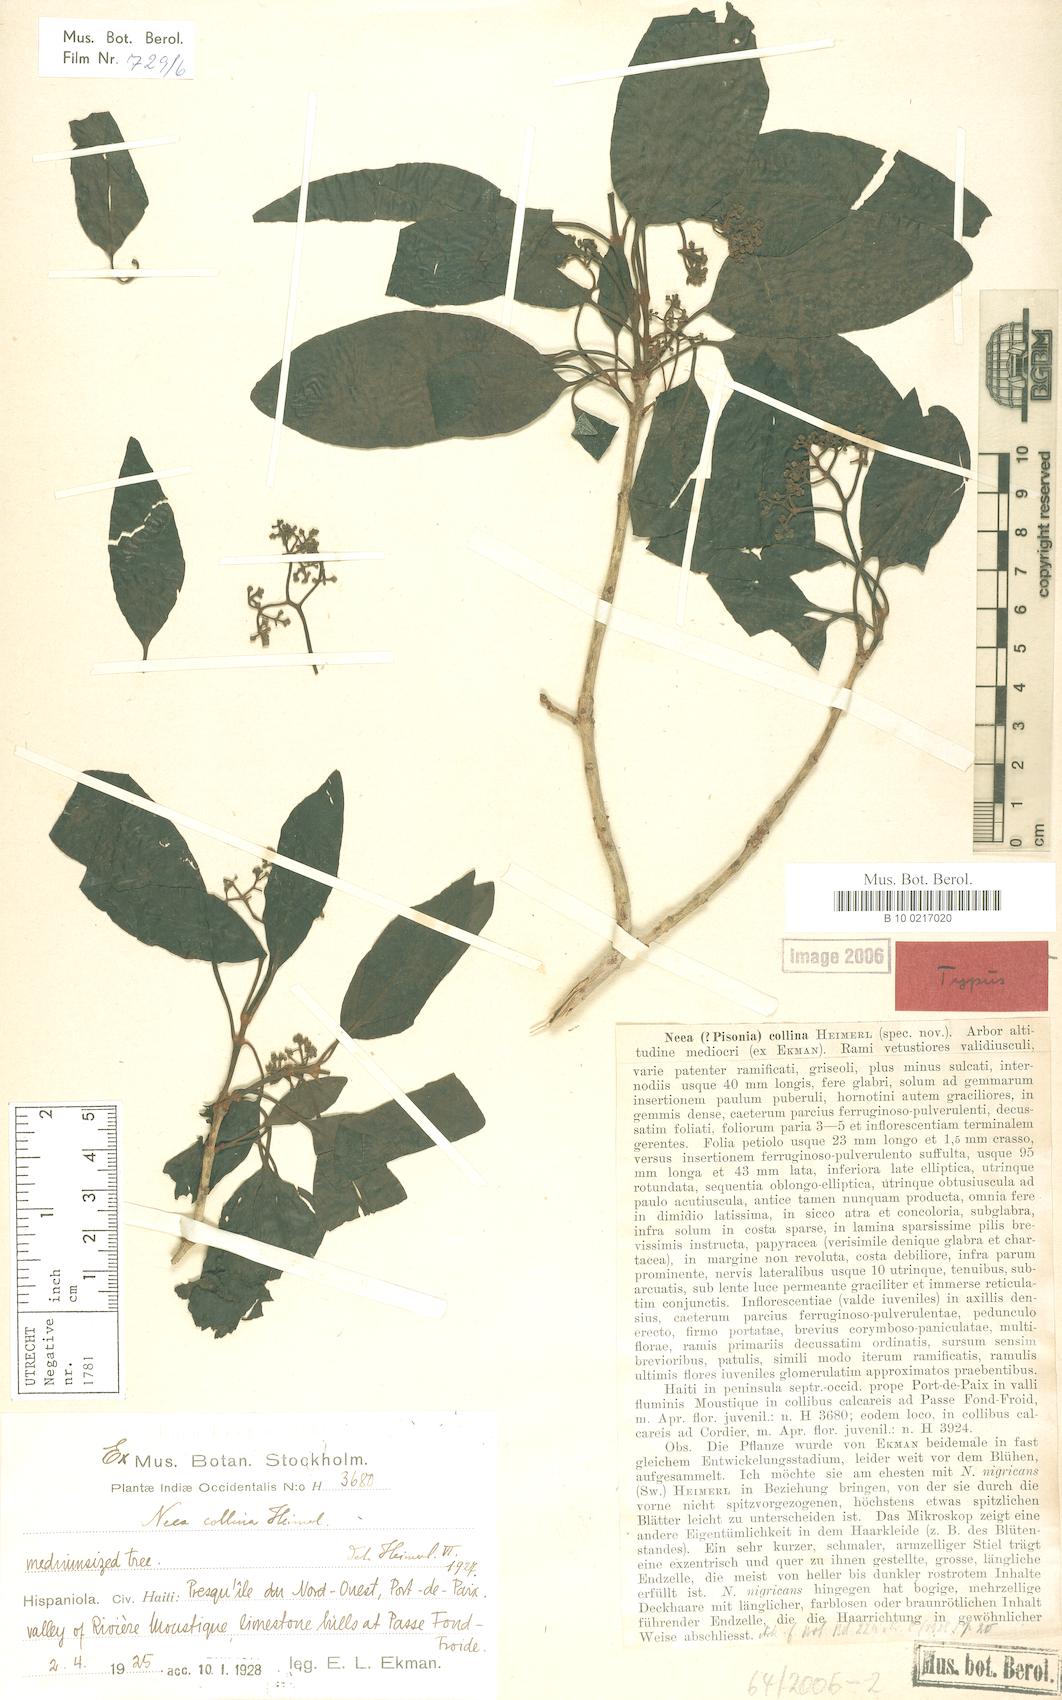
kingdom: Plantae
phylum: Tracheophyta
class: Magnoliopsida
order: Caryophyllales
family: Nyctaginaceae
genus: Neea
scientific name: Neea collina
